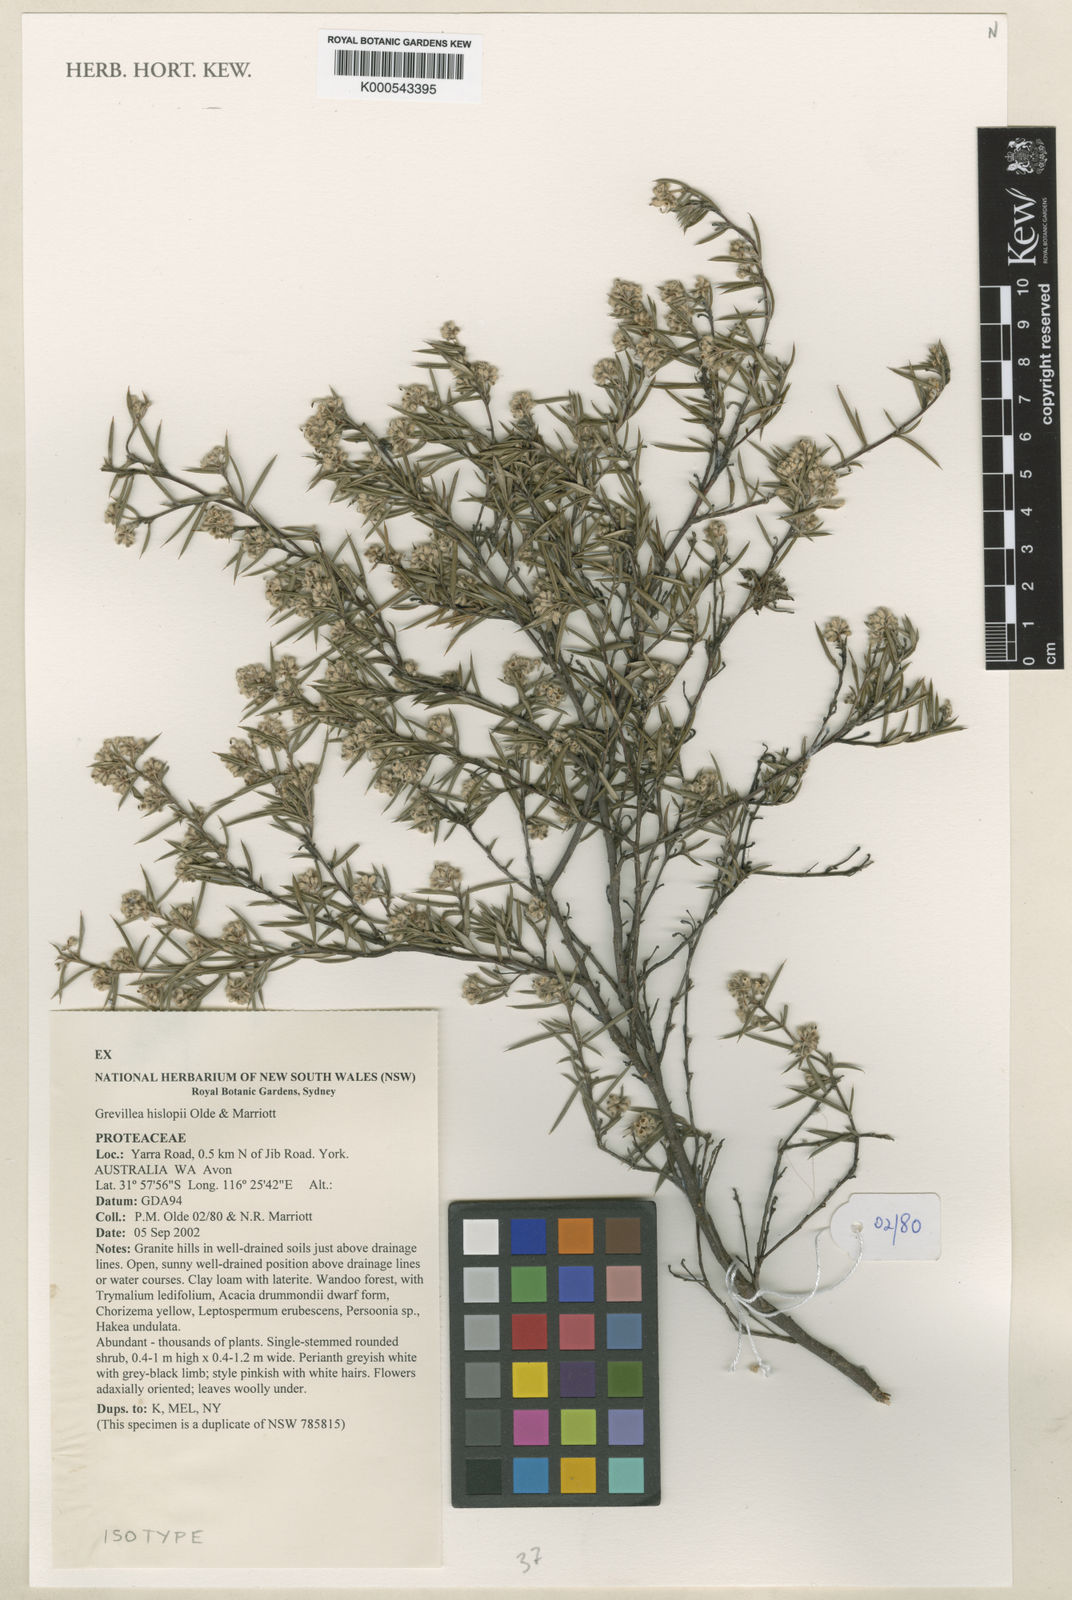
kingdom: Plantae
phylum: Tracheophyta
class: Magnoliopsida
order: Proteales
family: Proteaceae
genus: Grevillea
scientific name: Grevillea hislopii
